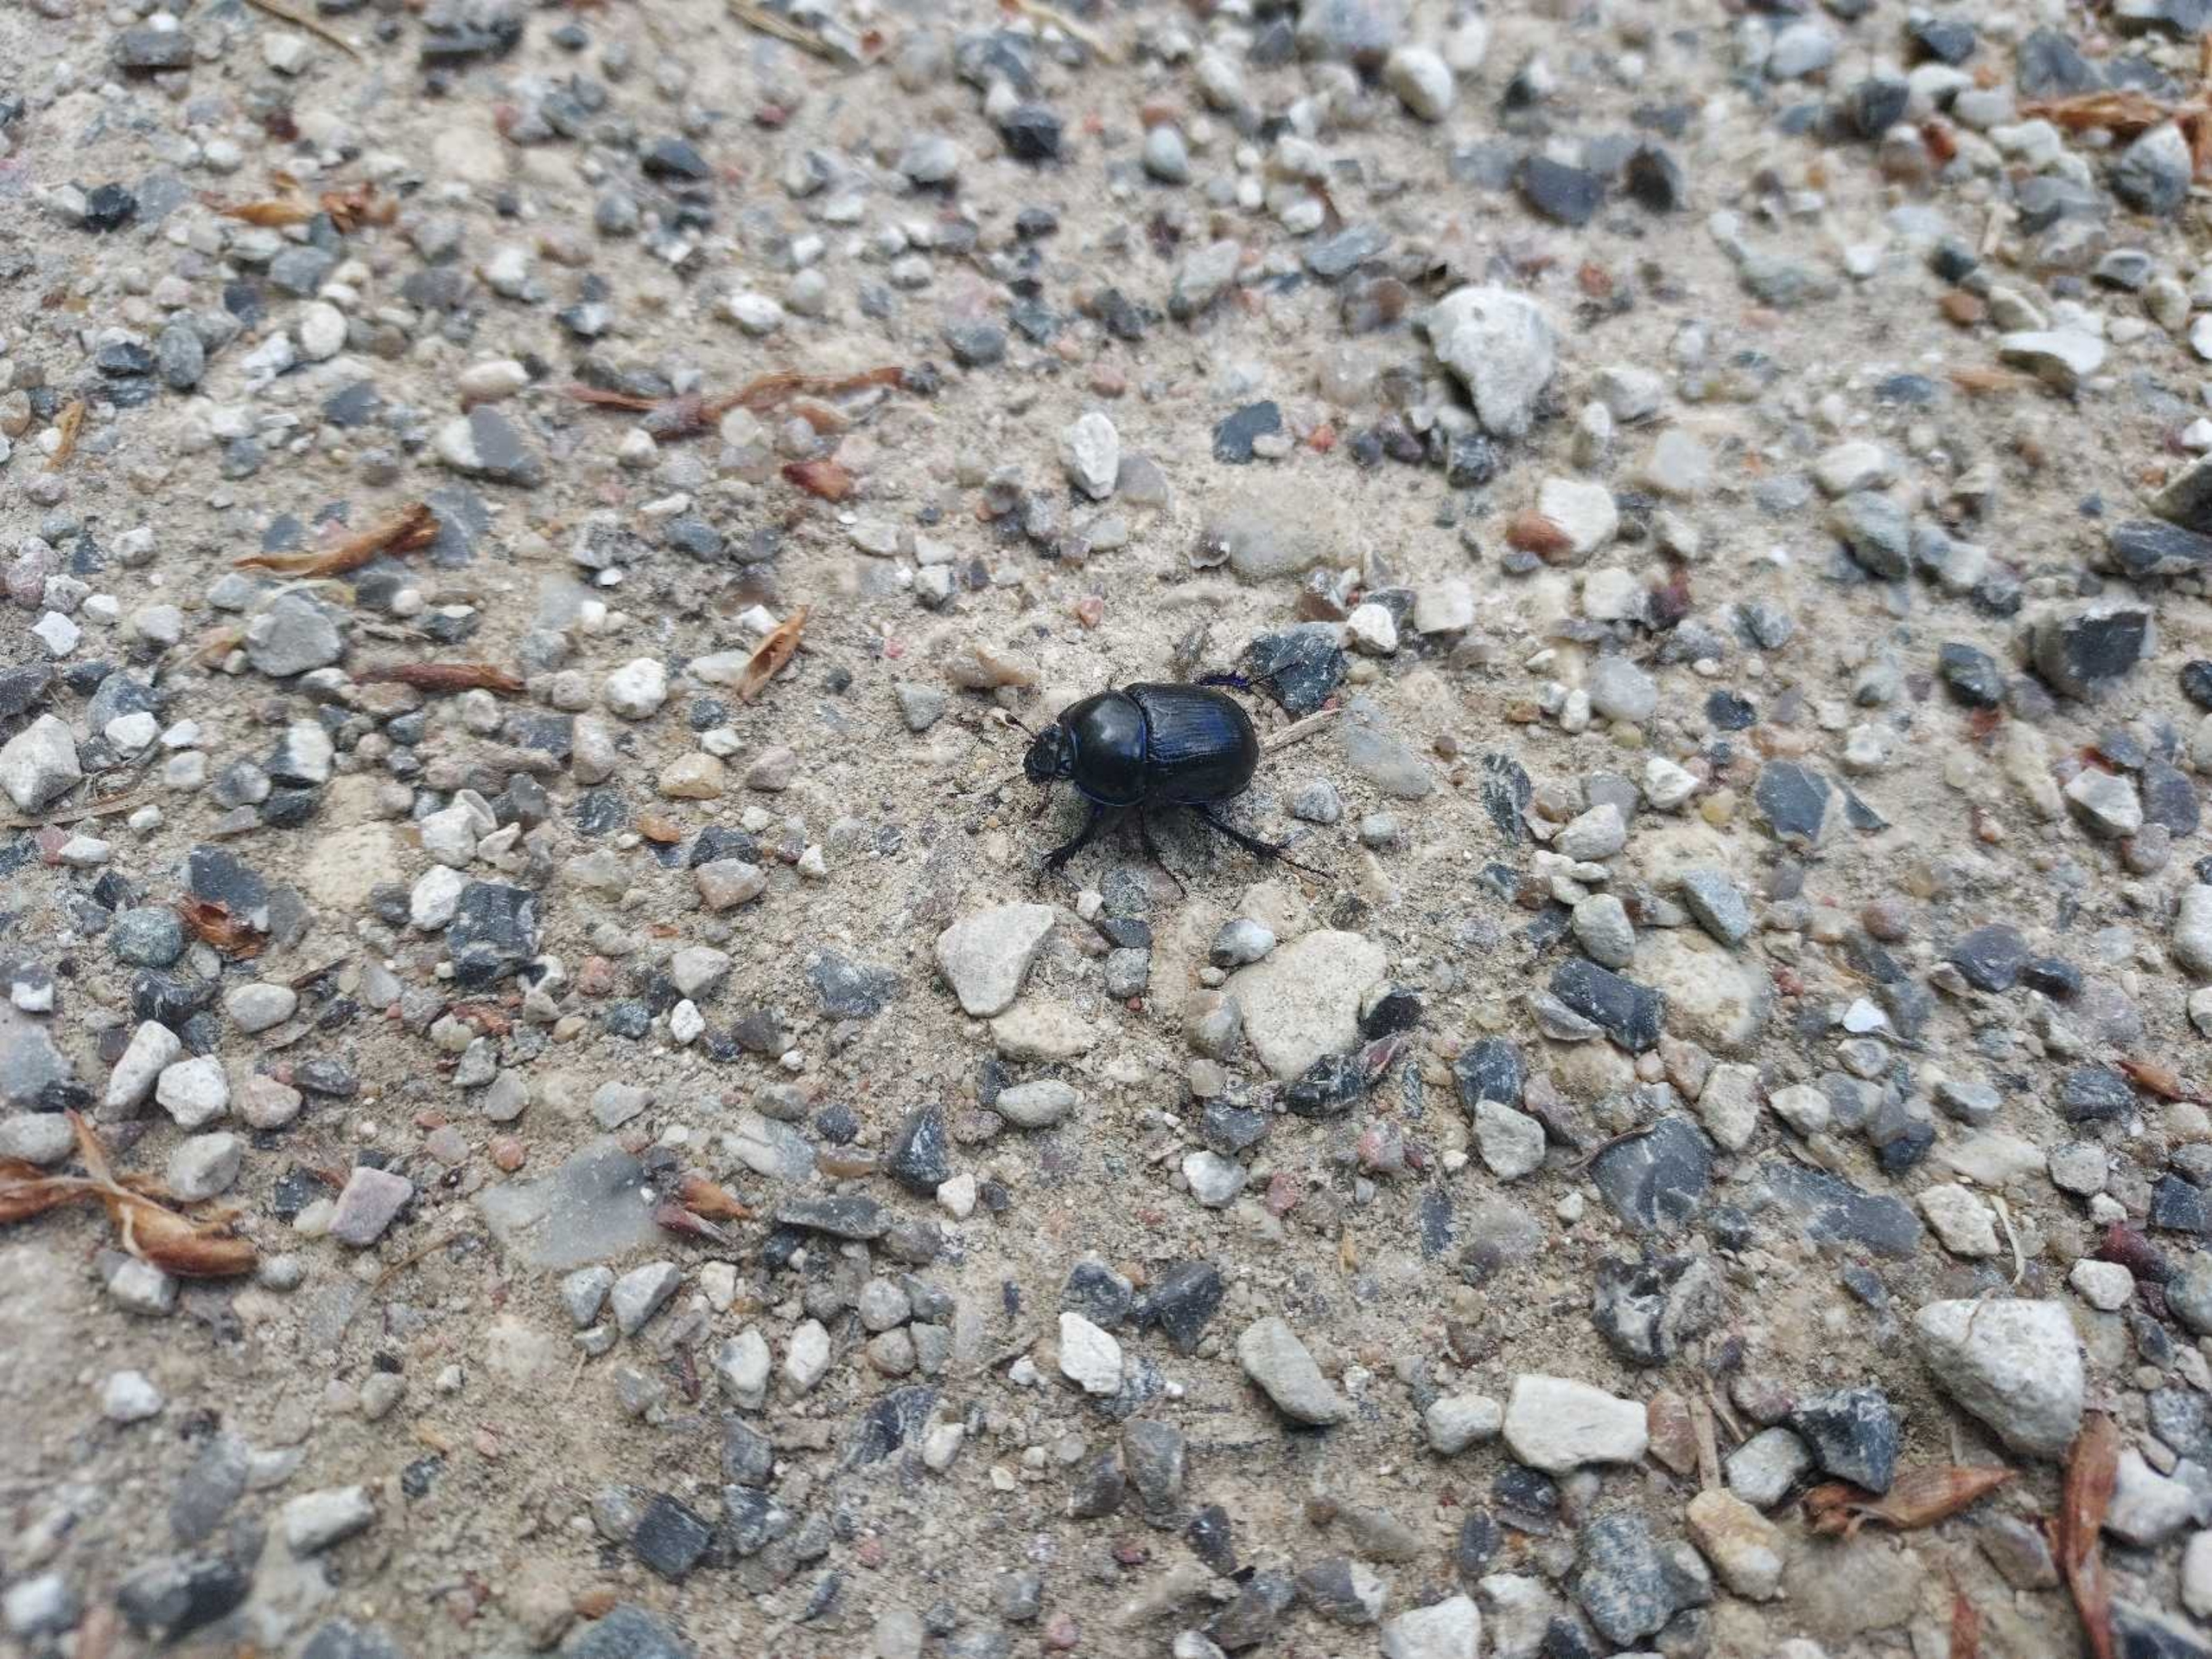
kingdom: Animalia
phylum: Arthropoda
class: Insecta
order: Coleoptera
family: Geotrupidae
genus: Anoplotrupes
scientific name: Anoplotrupes stercorosus
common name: Skovskarnbasse
